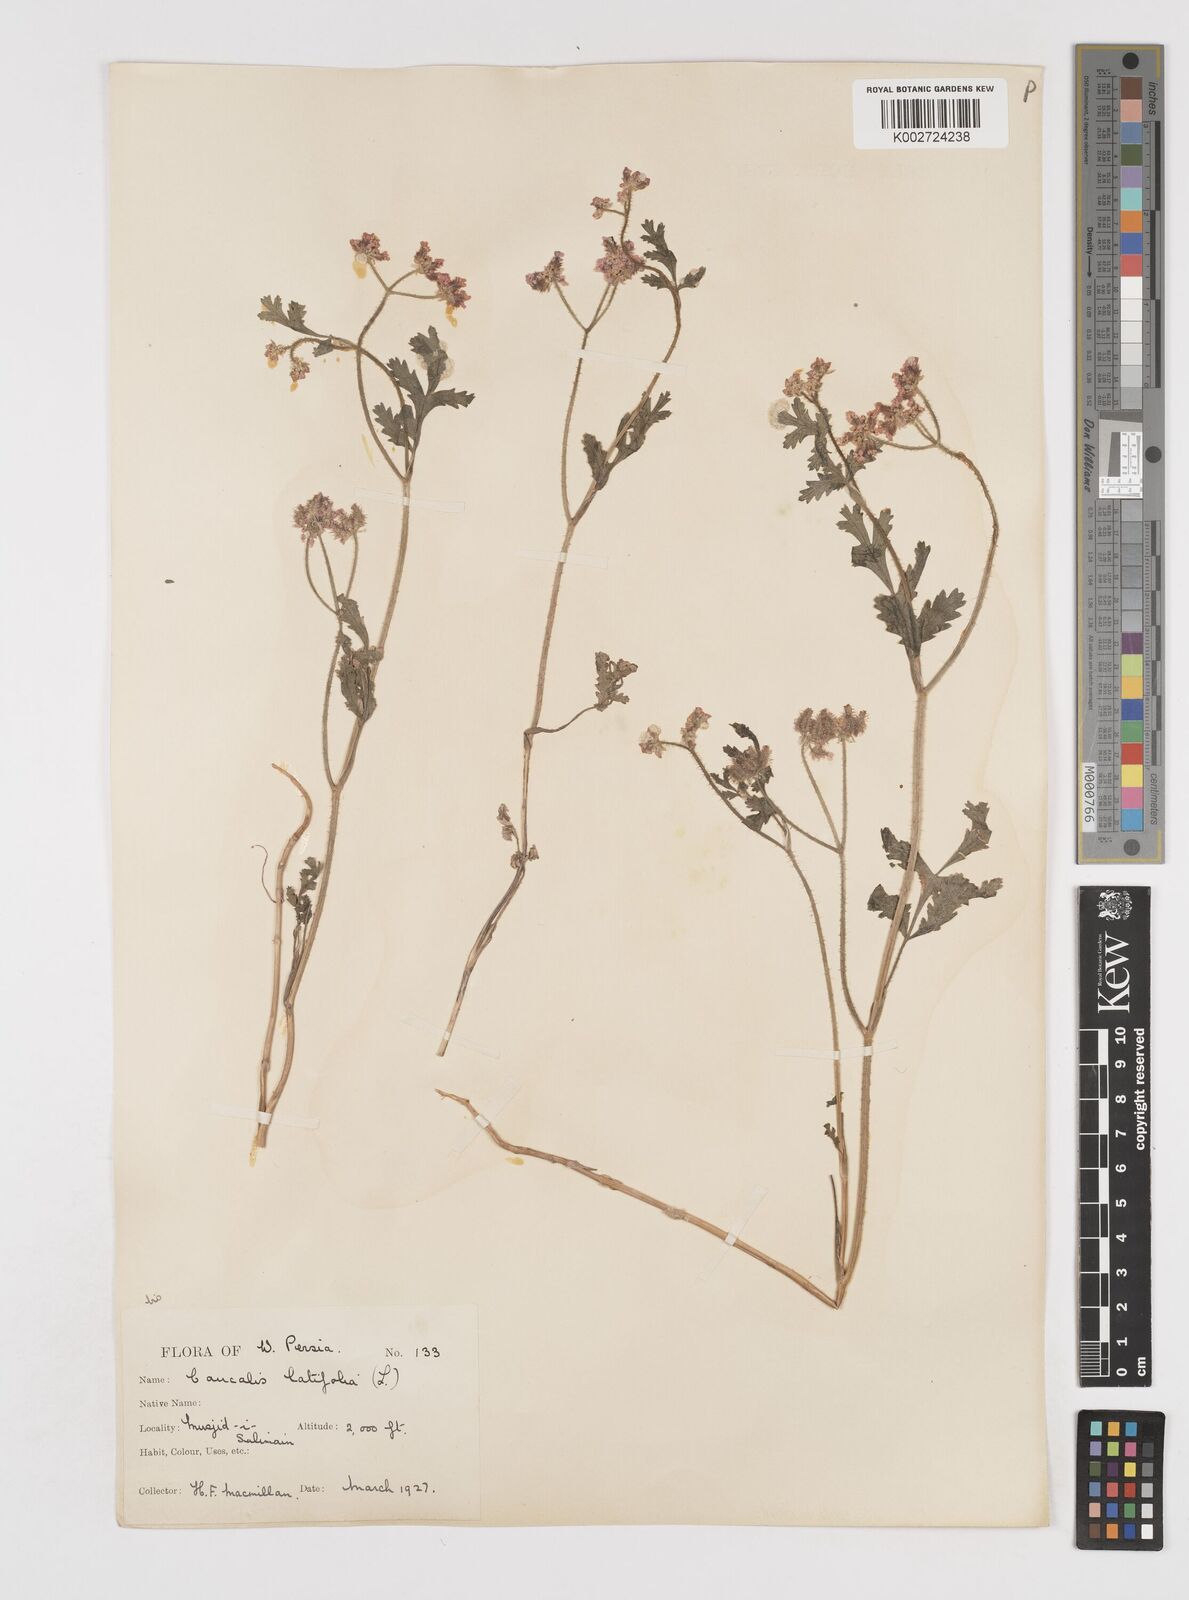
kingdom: Plantae
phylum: Tracheophyta
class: Magnoliopsida
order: Apiales
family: Apiaceae
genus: Turgenia
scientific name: Turgenia latifolia
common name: Greater bur-parsley
